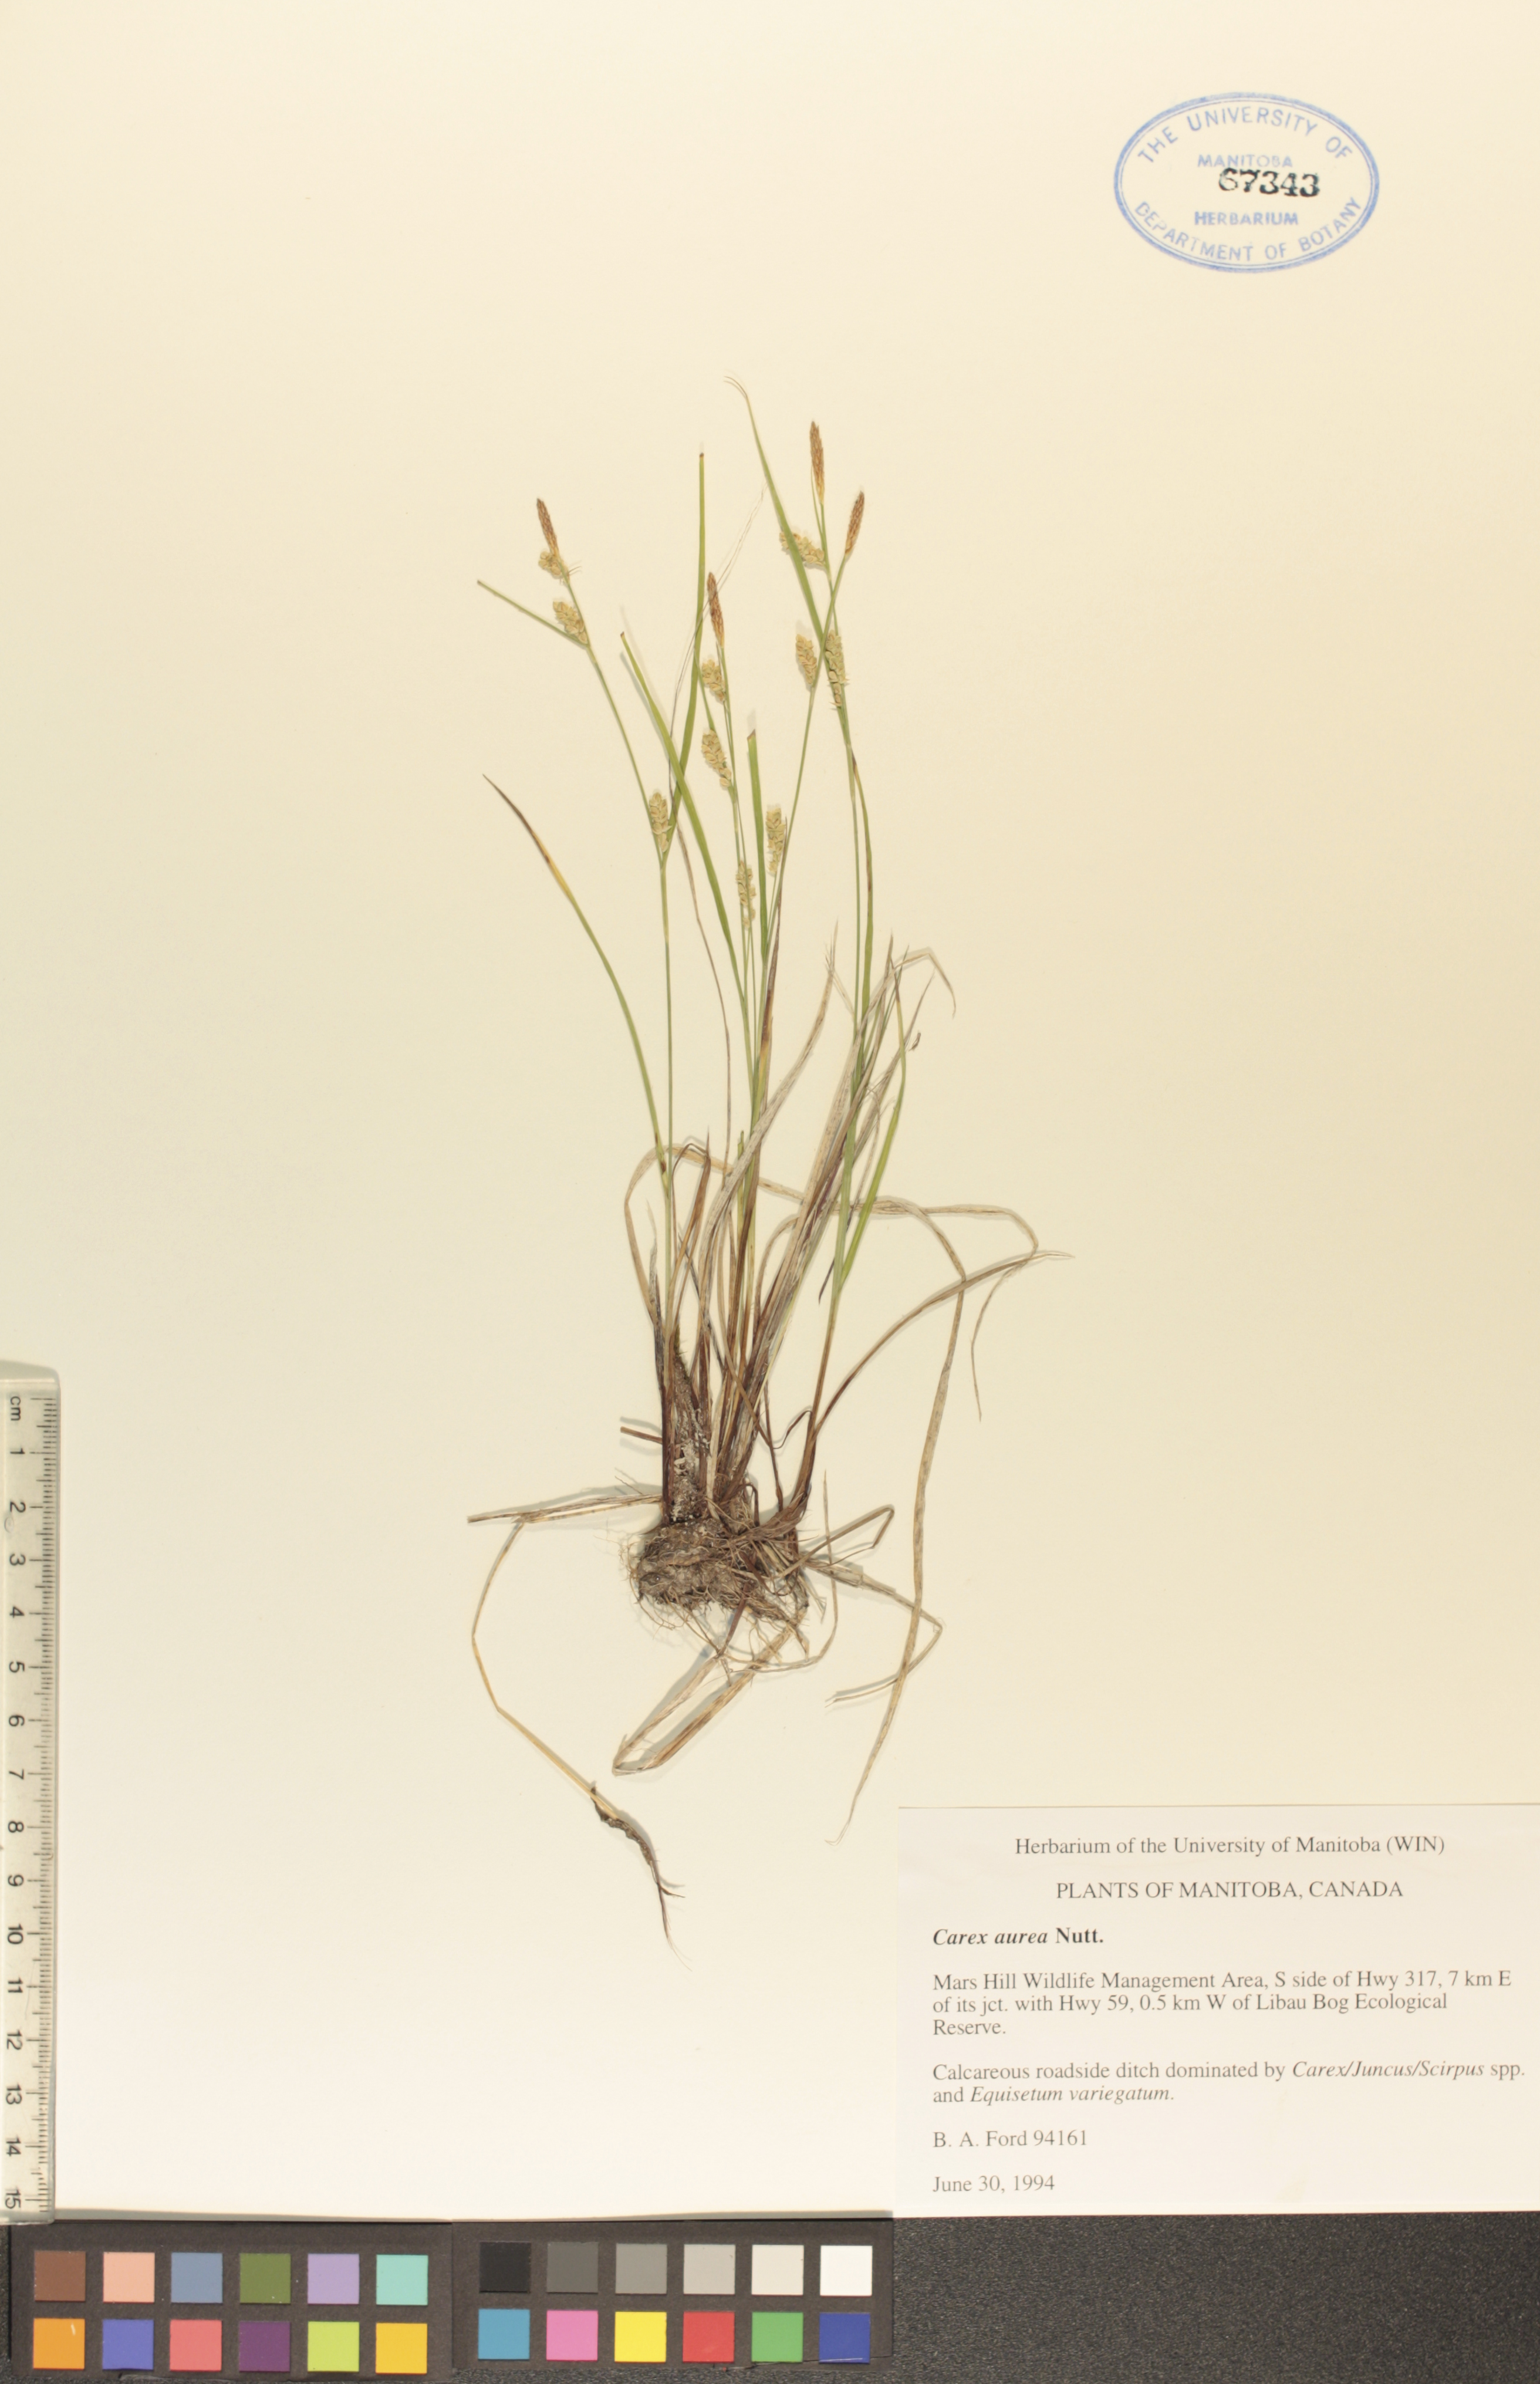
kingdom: Plantae
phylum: Tracheophyta
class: Liliopsida
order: Poales
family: Cyperaceae
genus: Carex
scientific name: Carex aurea
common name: Golden sedge
